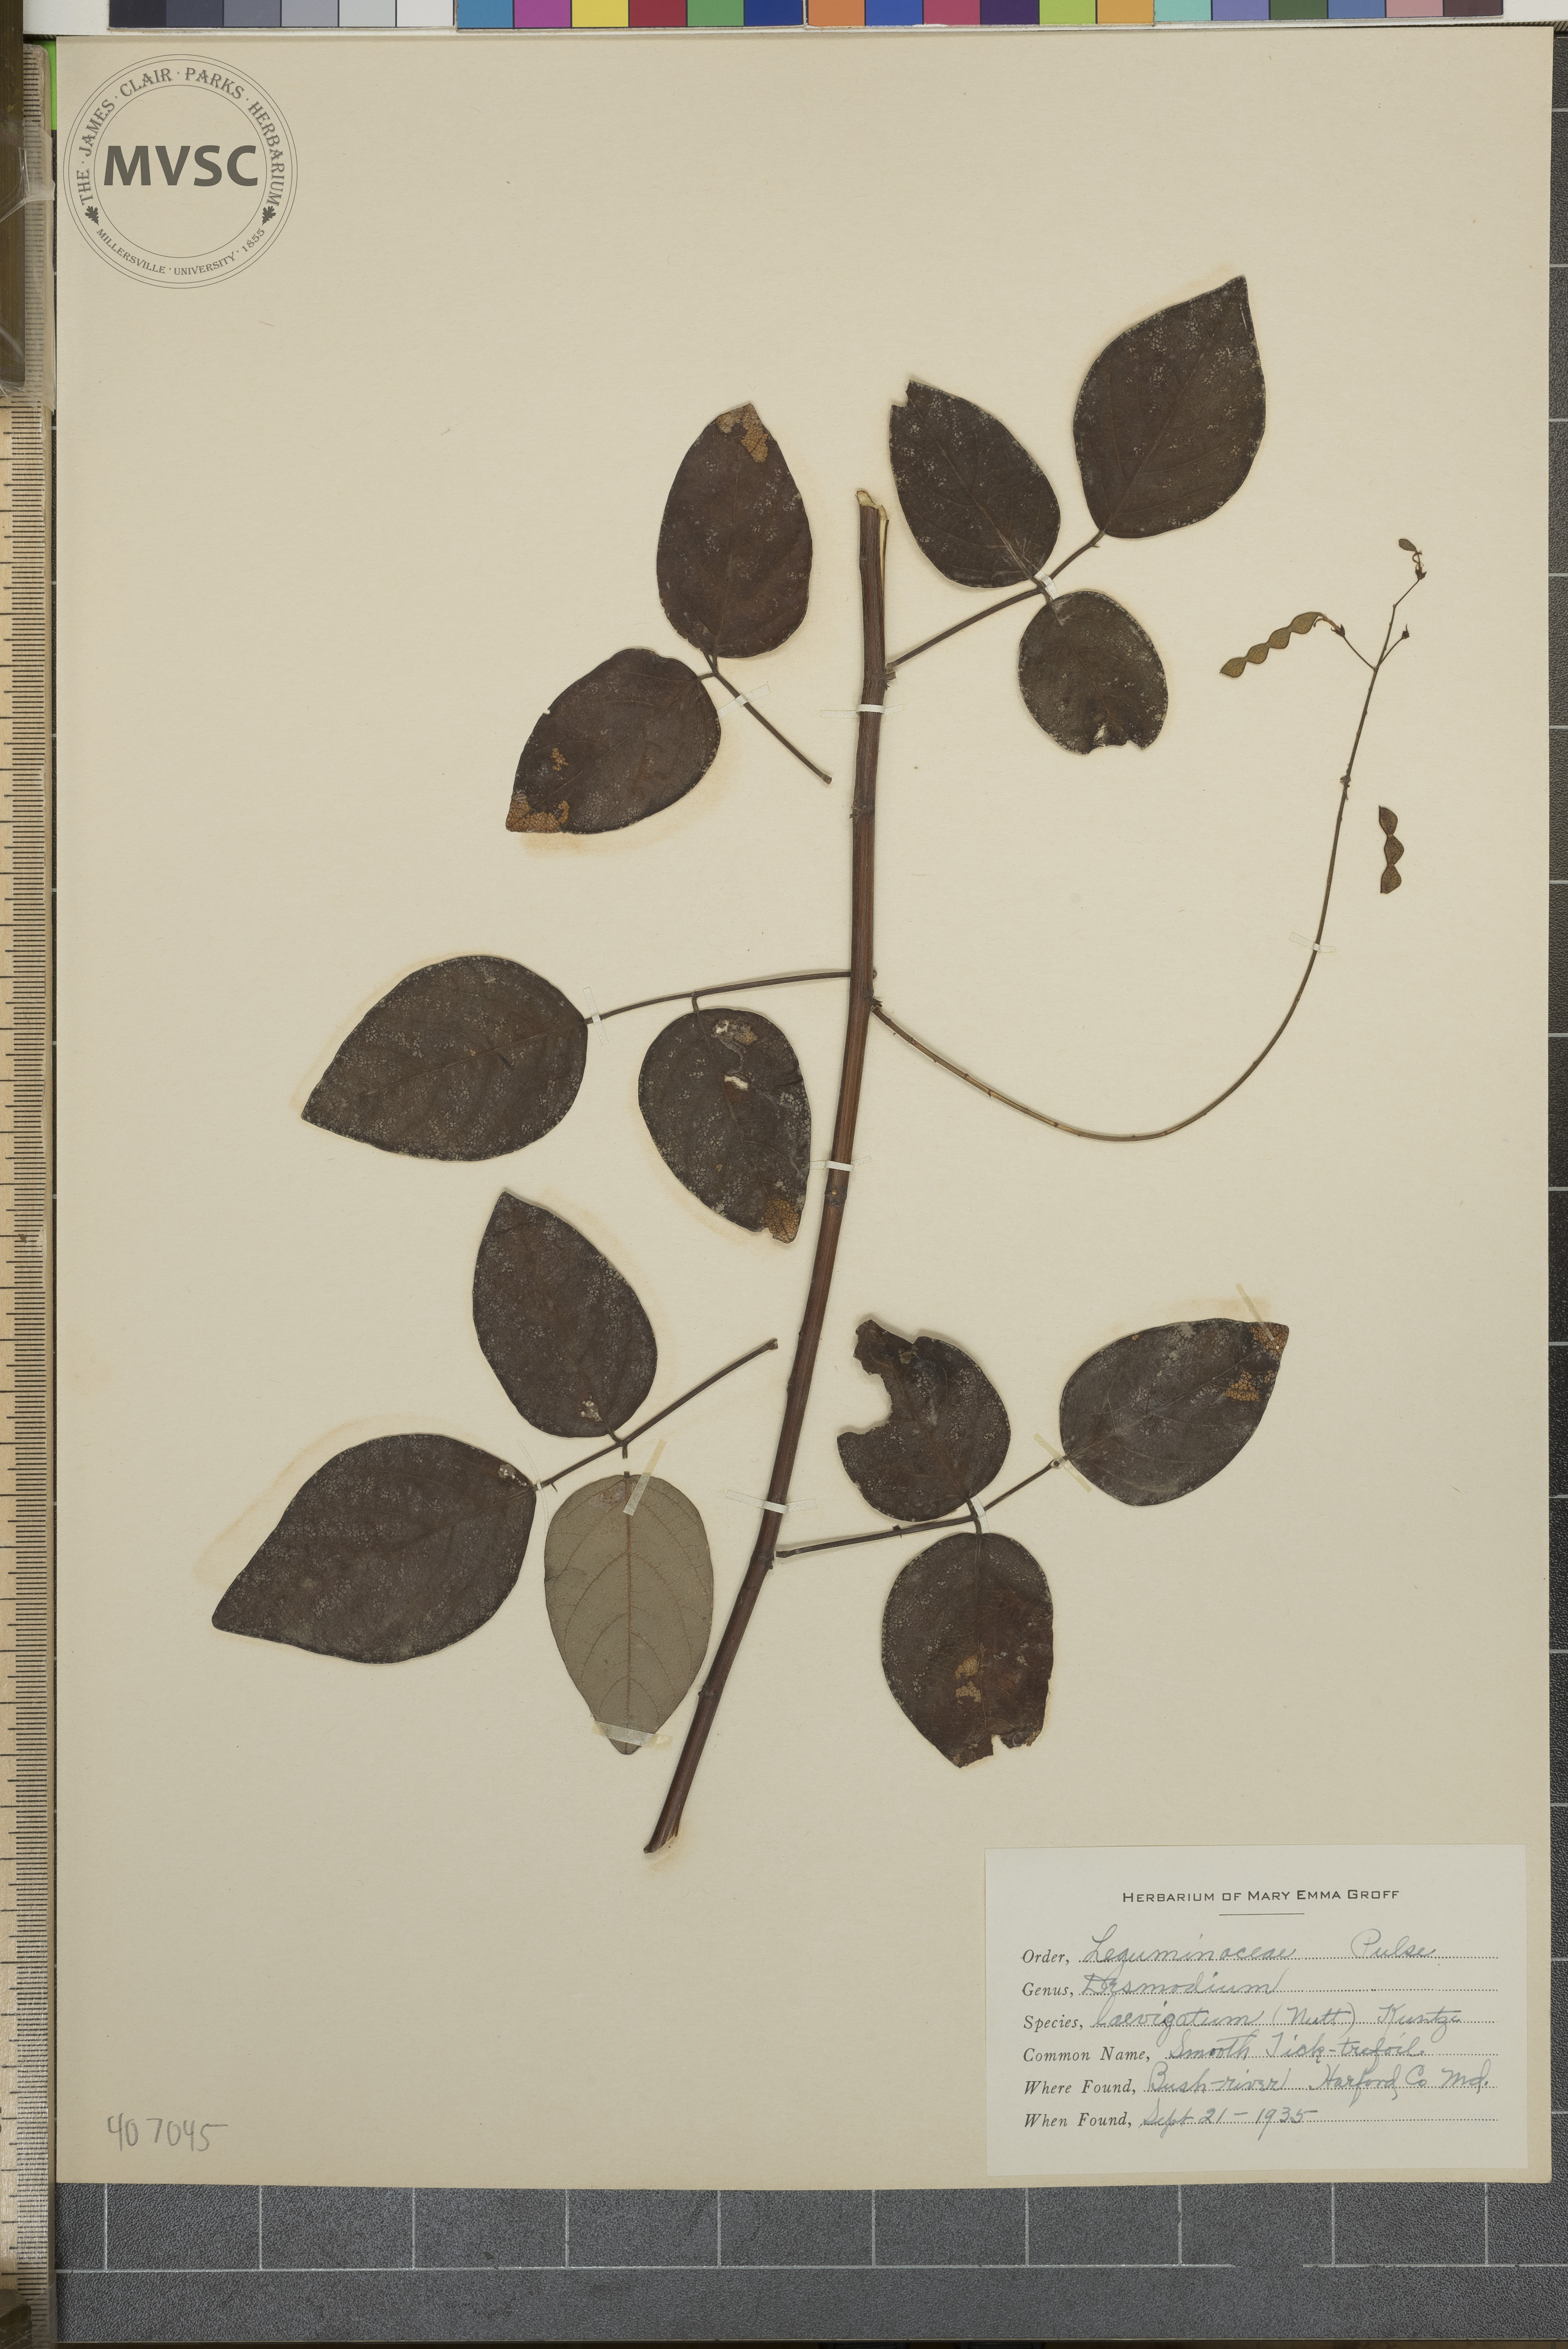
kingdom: Plantae
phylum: Tracheophyta
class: Magnoliopsida
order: Fabales
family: Fabaceae
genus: Desmodium
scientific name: Desmodium laevigatum
